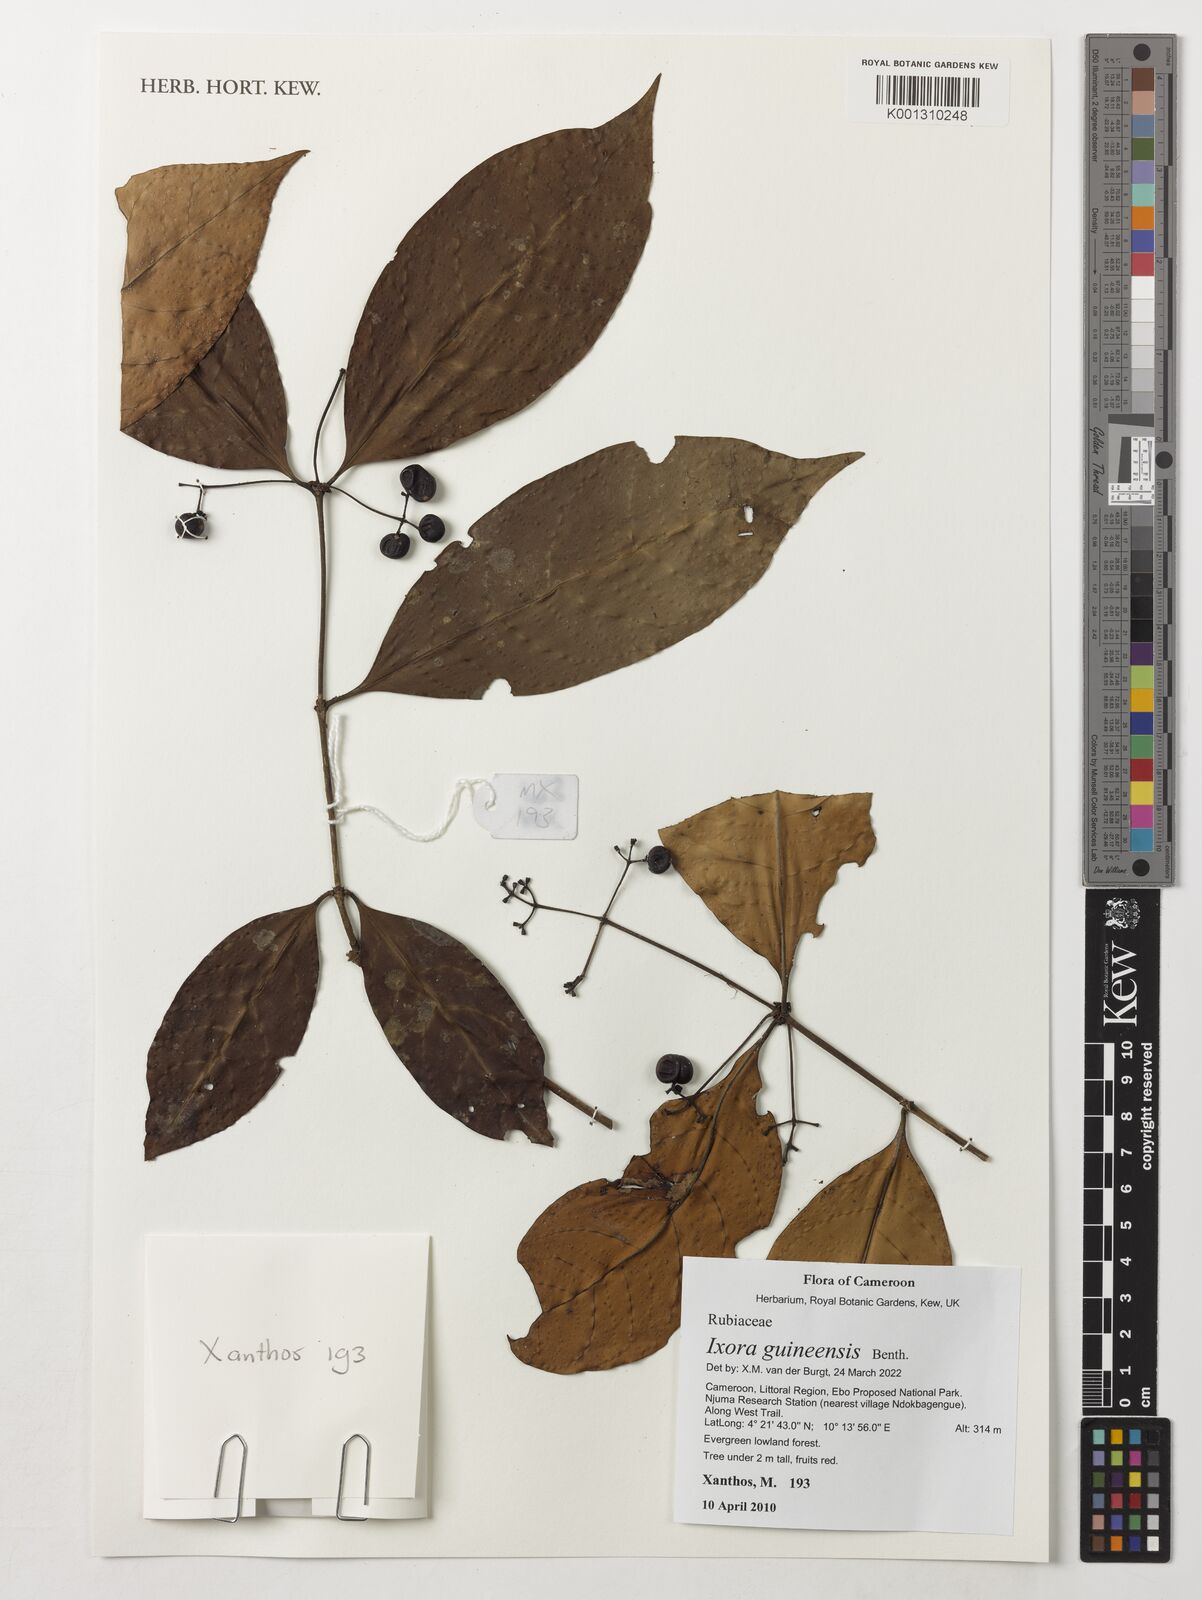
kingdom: Plantae
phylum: Tracheophyta
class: Magnoliopsida
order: Gentianales
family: Rubiaceae
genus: Faramea
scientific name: Faramea lourteigiana
